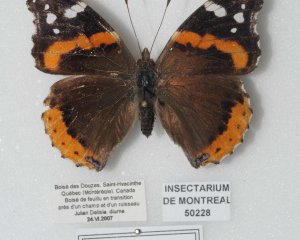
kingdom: Animalia
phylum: Arthropoda
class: Insecta
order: Lepidoptera
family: Nymphalidae
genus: Vanessa
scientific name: Vanessa atalanta
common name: Red Admiral
